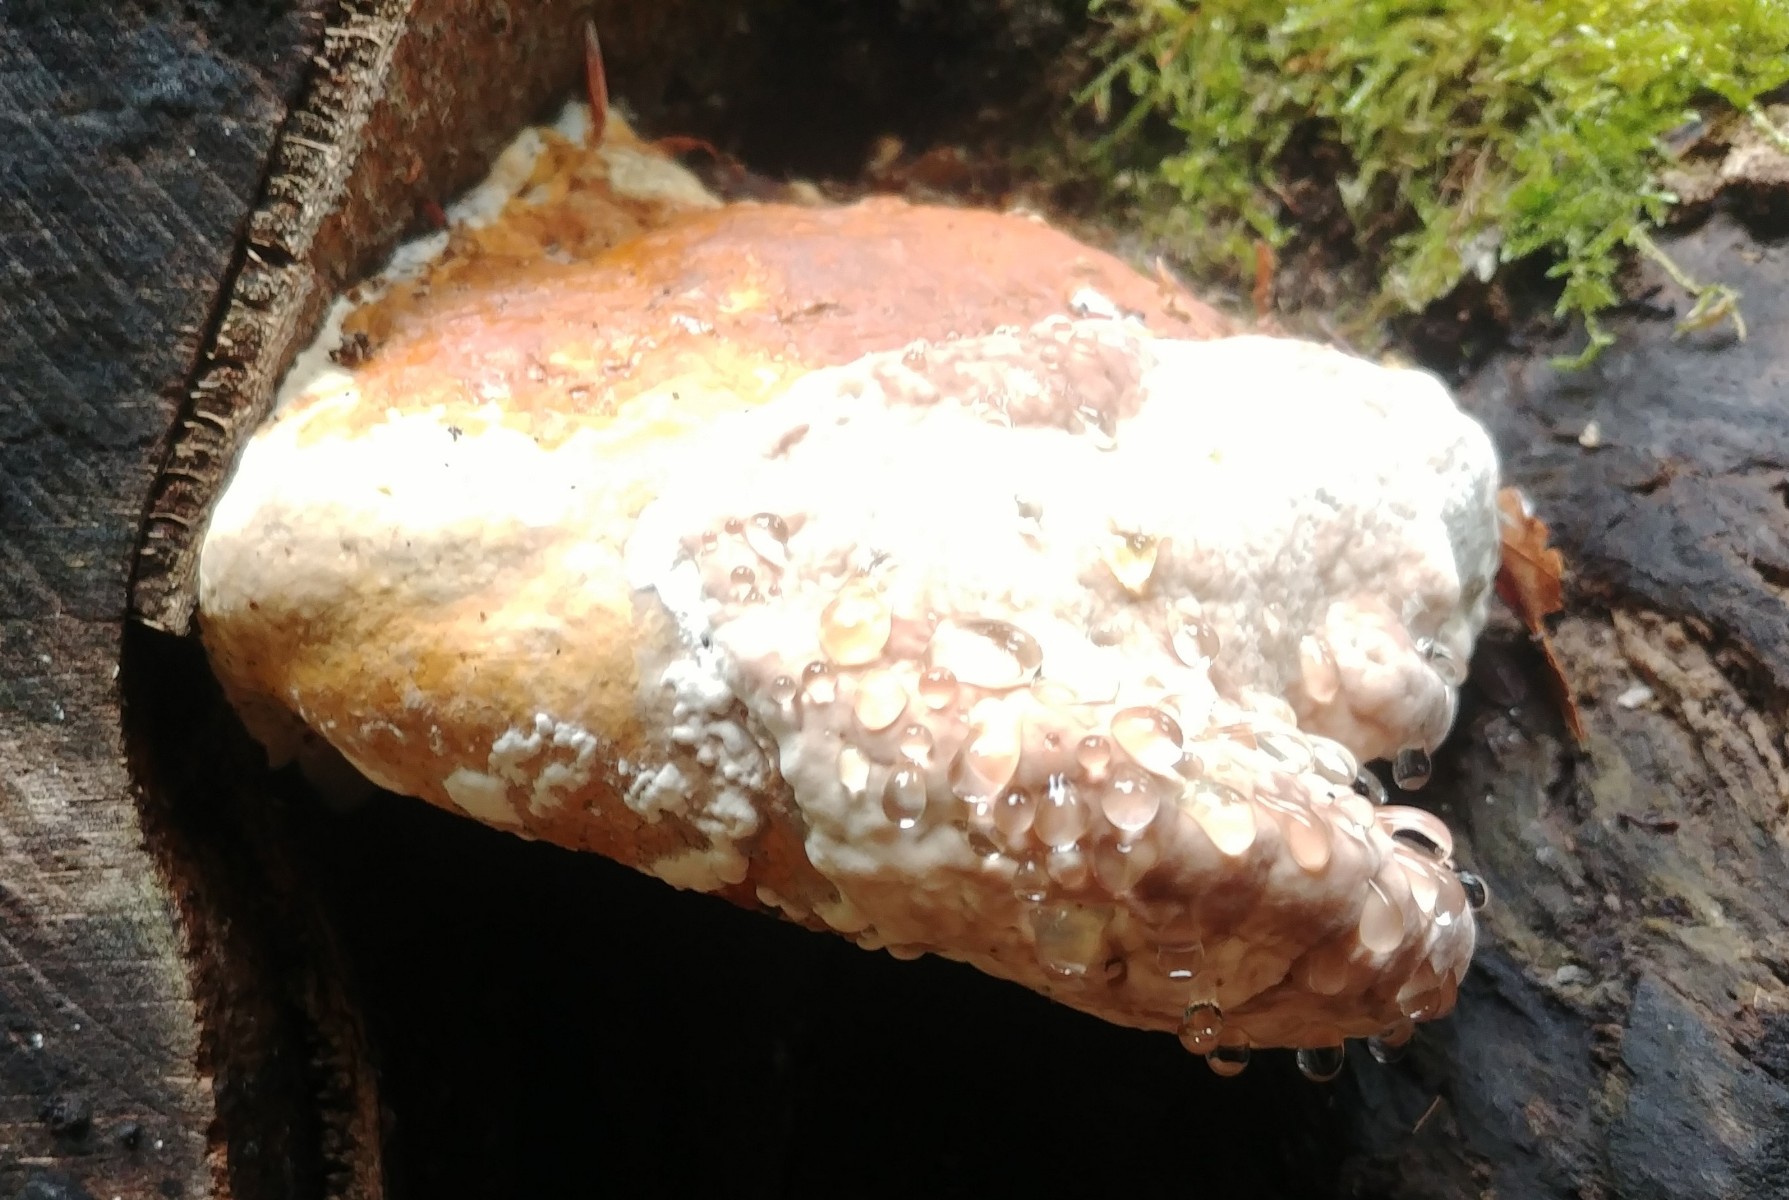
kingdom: Fungi
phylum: Basidiomycota
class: Agaricomycetes
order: Polyporales
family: Fomitopsidaceae
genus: Fomitopsis
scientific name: Fomitopsis pinicola
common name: randbæltet hovporesvamp
